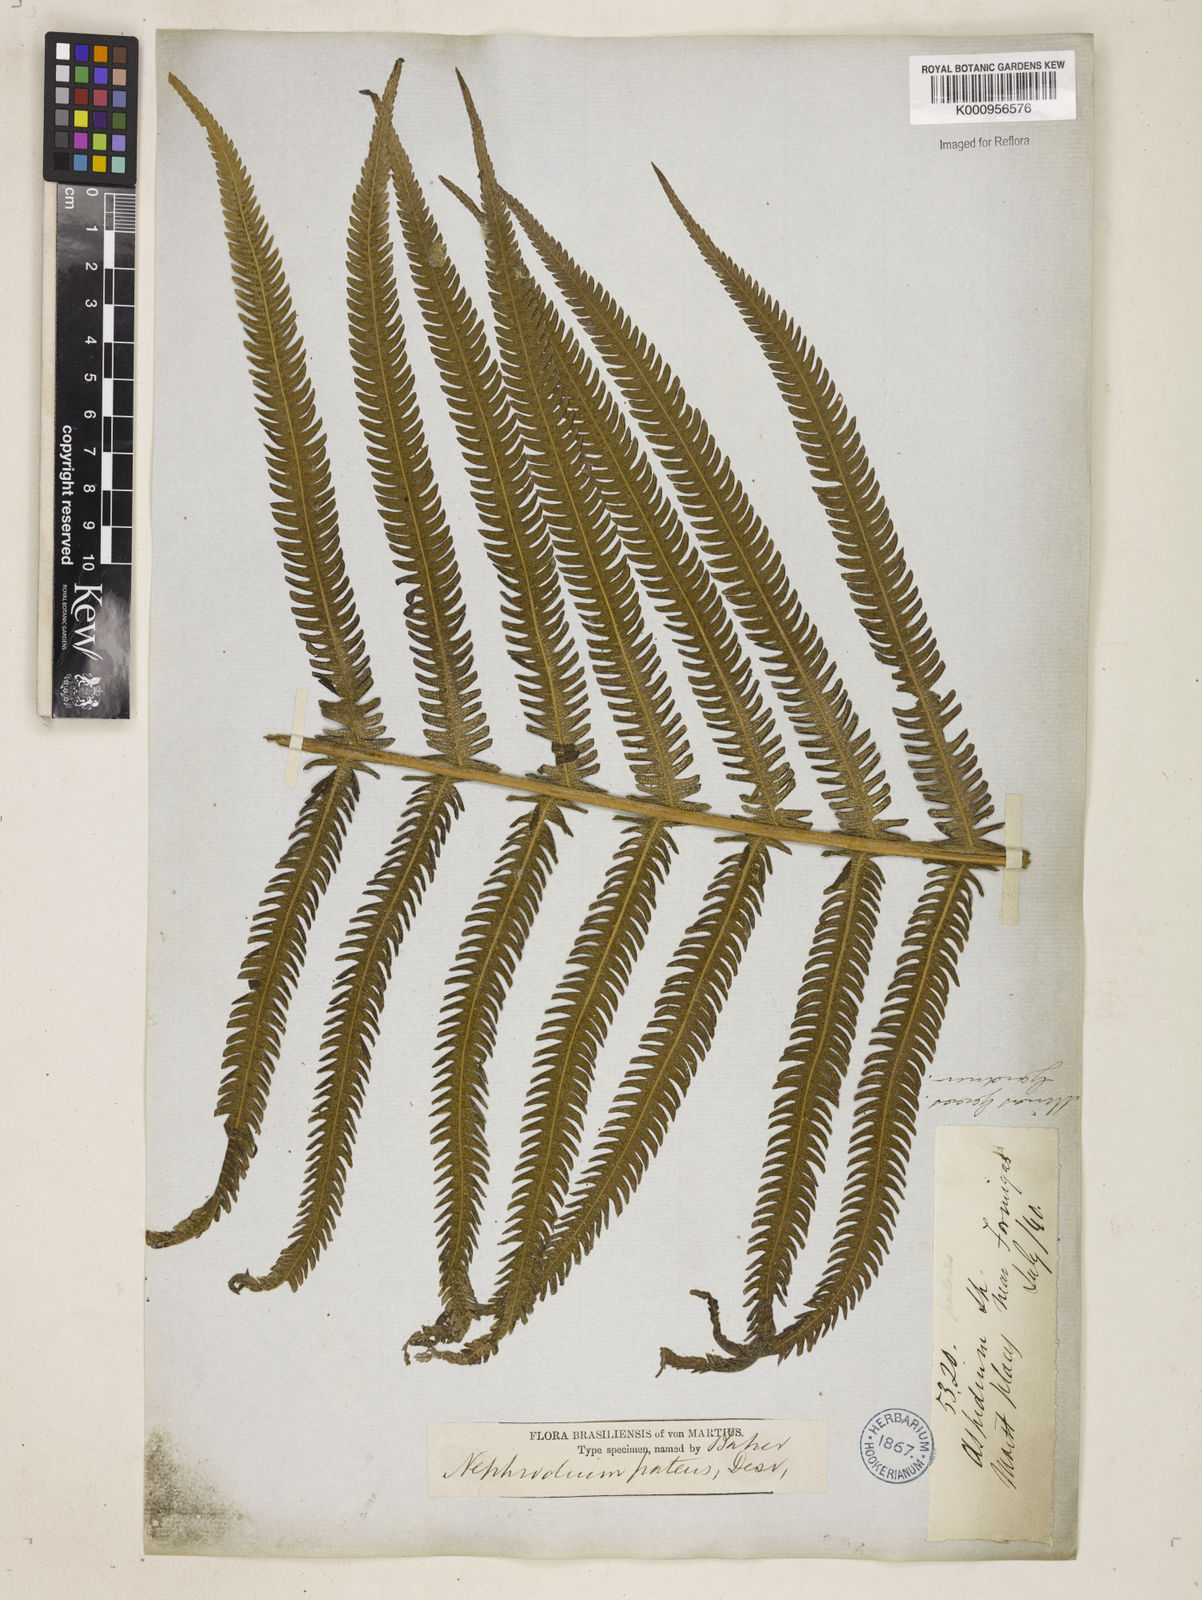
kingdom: Plantae
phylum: Tracheophyta
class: Polypodiopsida
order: Polypodiales
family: Thelypteridaceae
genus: Pelazoneuron
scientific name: Pelazoneuron patens
